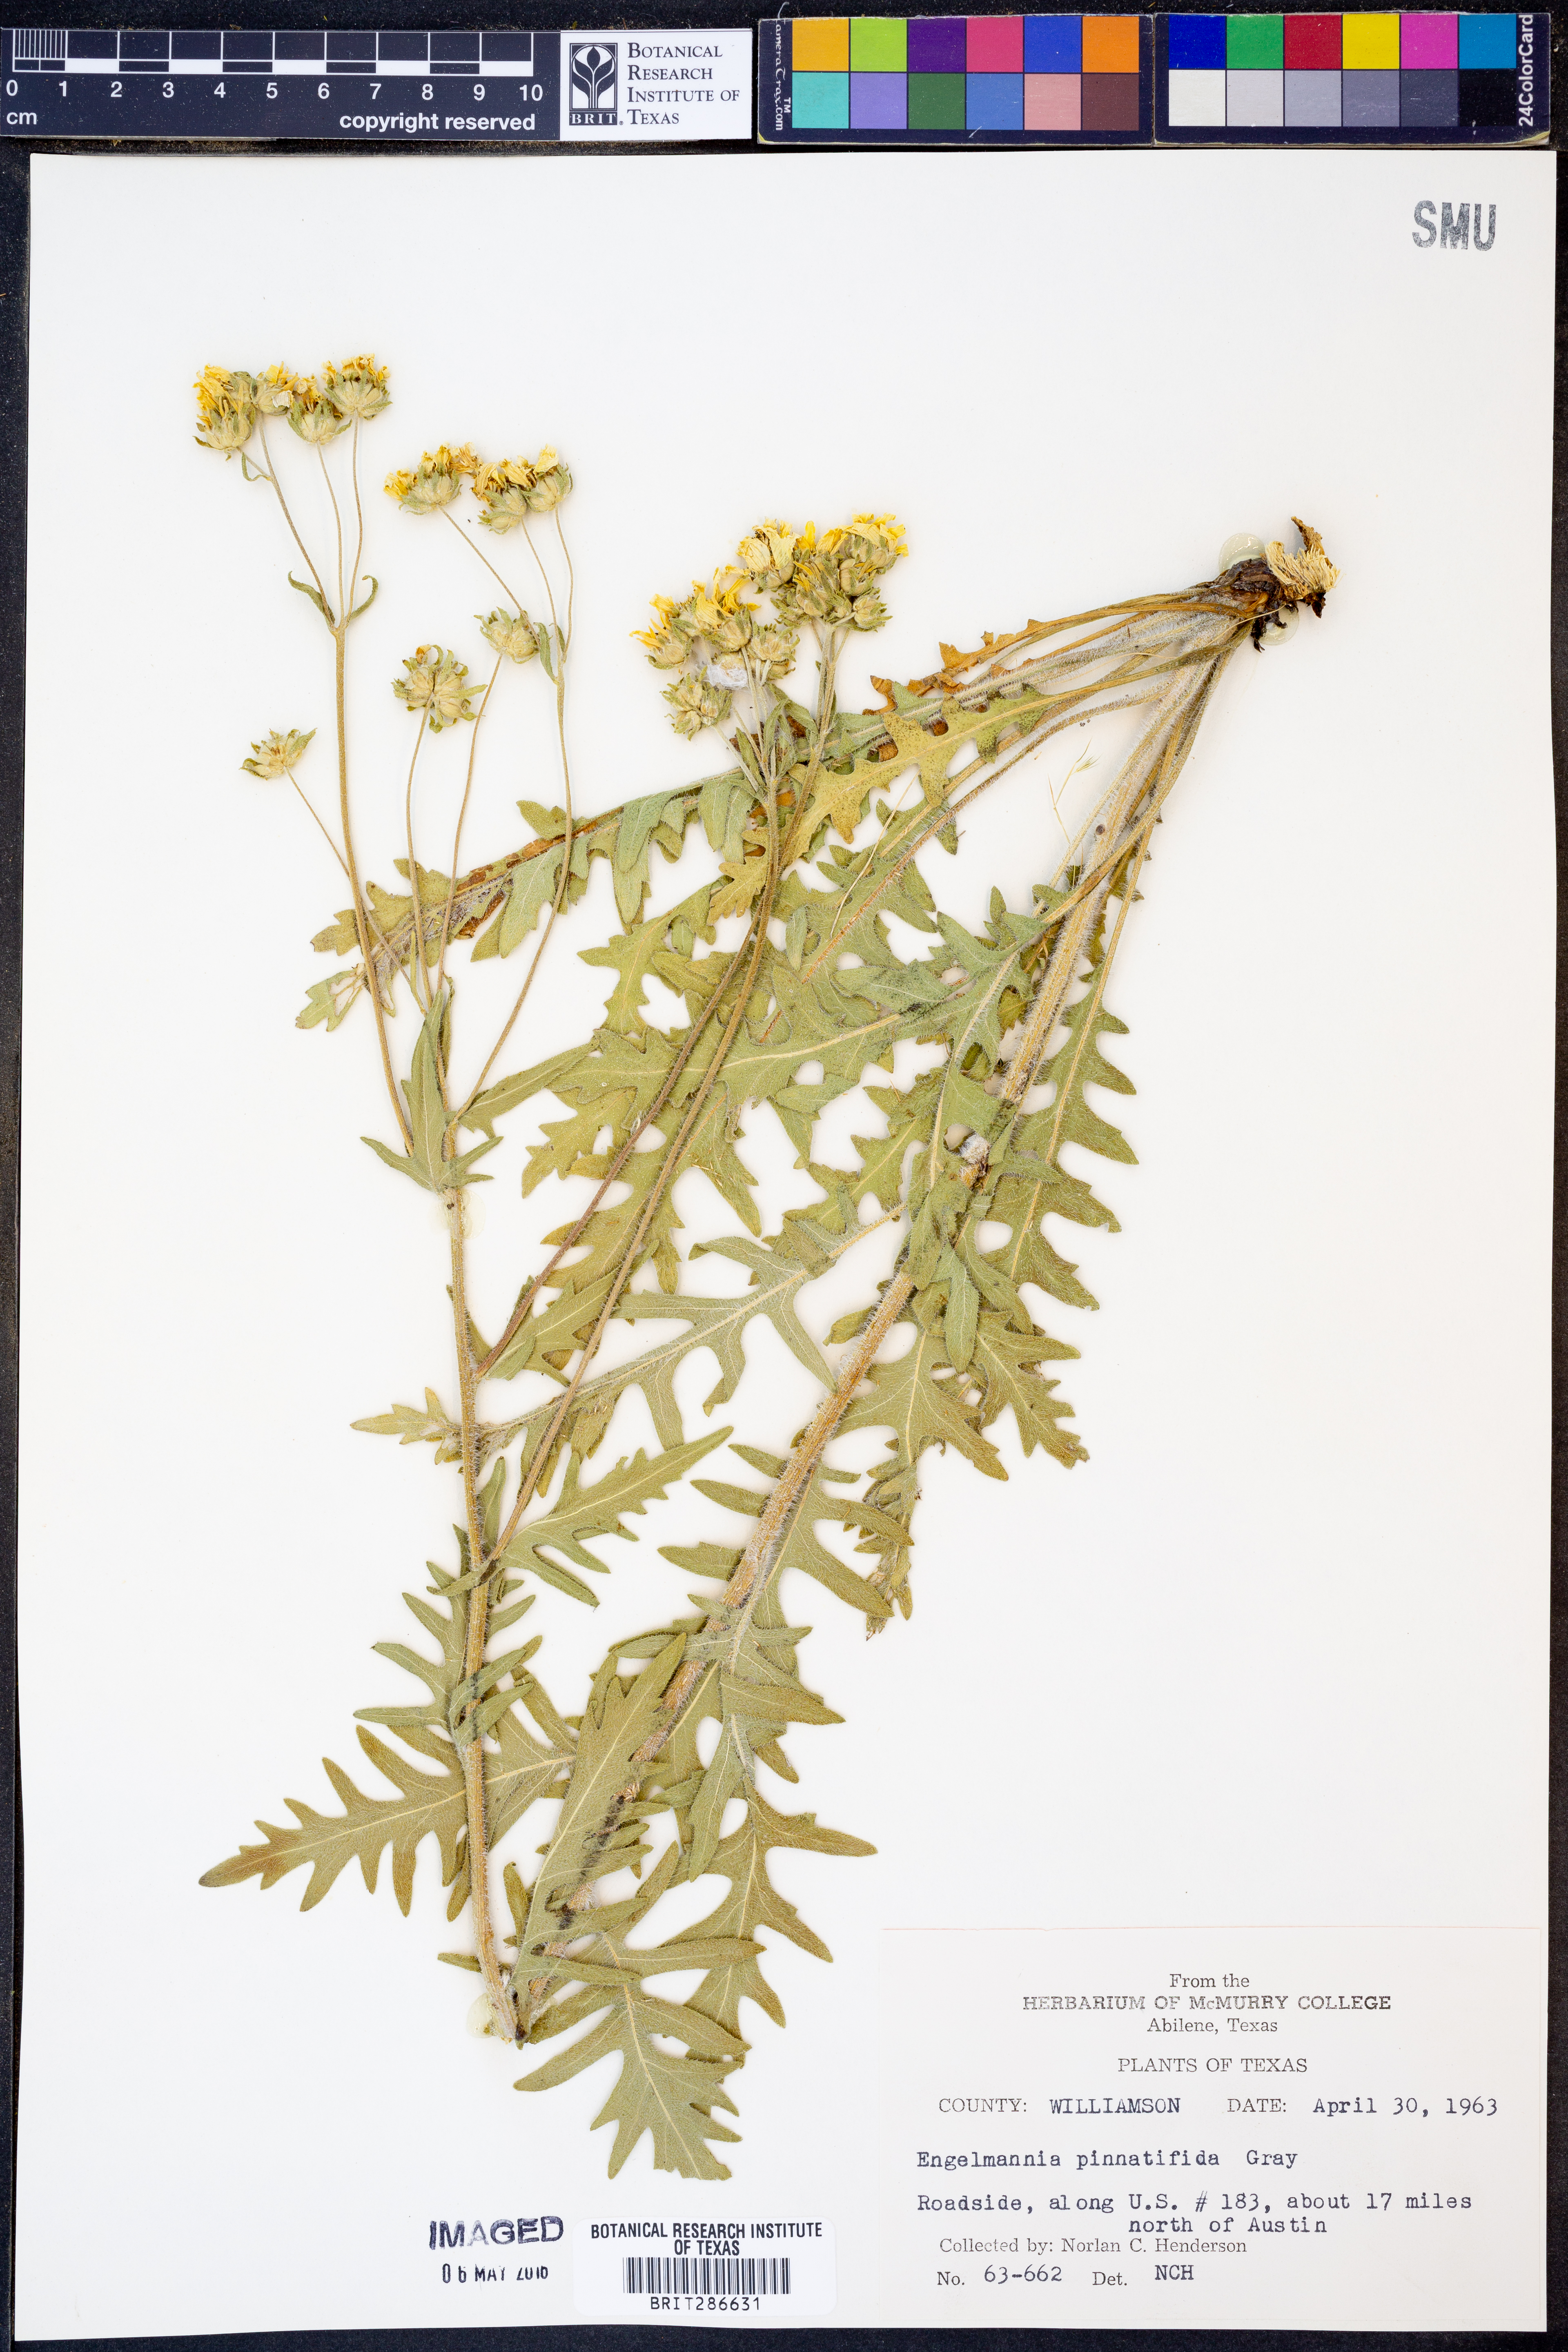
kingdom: Plantae
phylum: Tracheophyta
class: Magnoliopsida
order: Asterales
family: Asteraceae
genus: Engelmannia
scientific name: Engelmannia peristenia
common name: Engelmann's daisy
